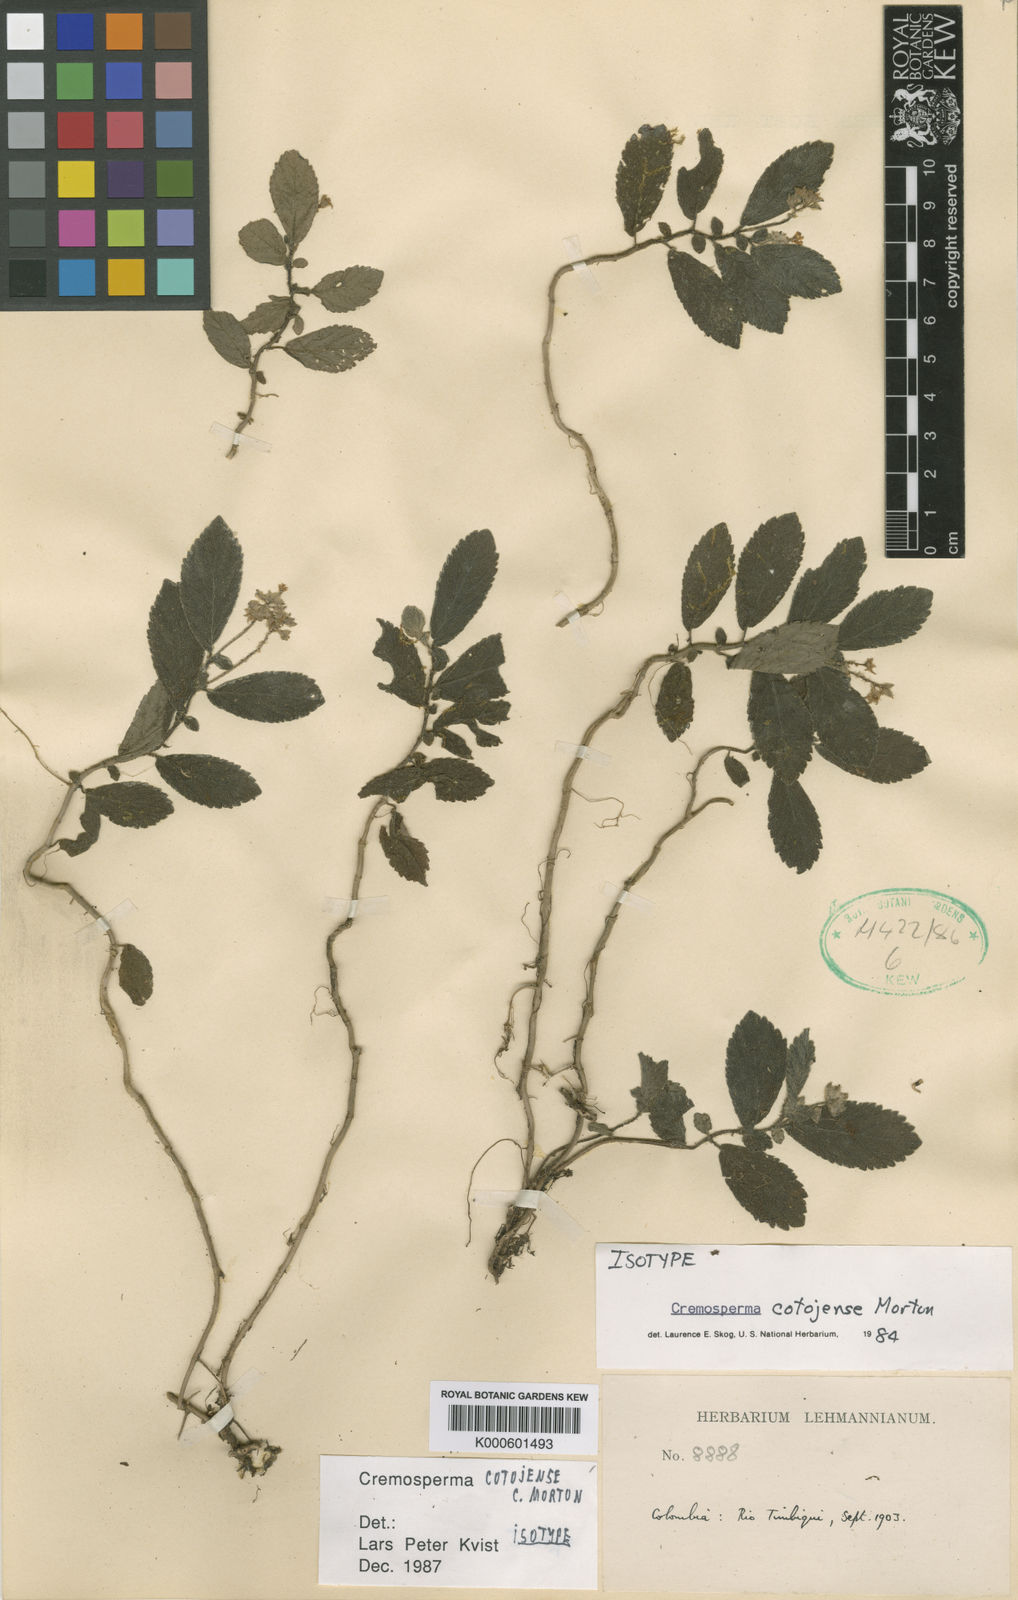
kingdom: Plantae
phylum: Tracheophyta
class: Magnoliopsida
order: Lamiales
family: Gesneriaceae
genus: Cremosperma
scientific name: Cremosperma cotejense
